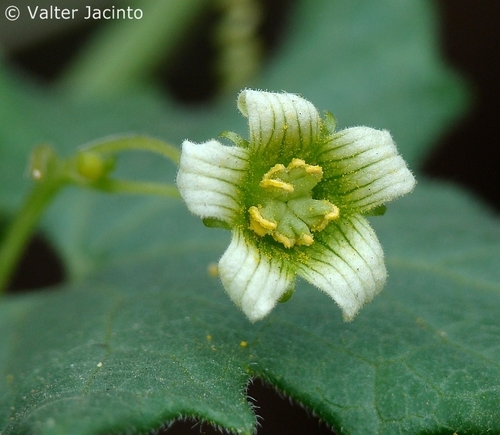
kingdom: Plantae
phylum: Tracheophyta
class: Magnoliopsida
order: Cucurbitales
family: Cucurbitaceae
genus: Bryonia
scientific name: Bryonia dioica
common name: White bryony
